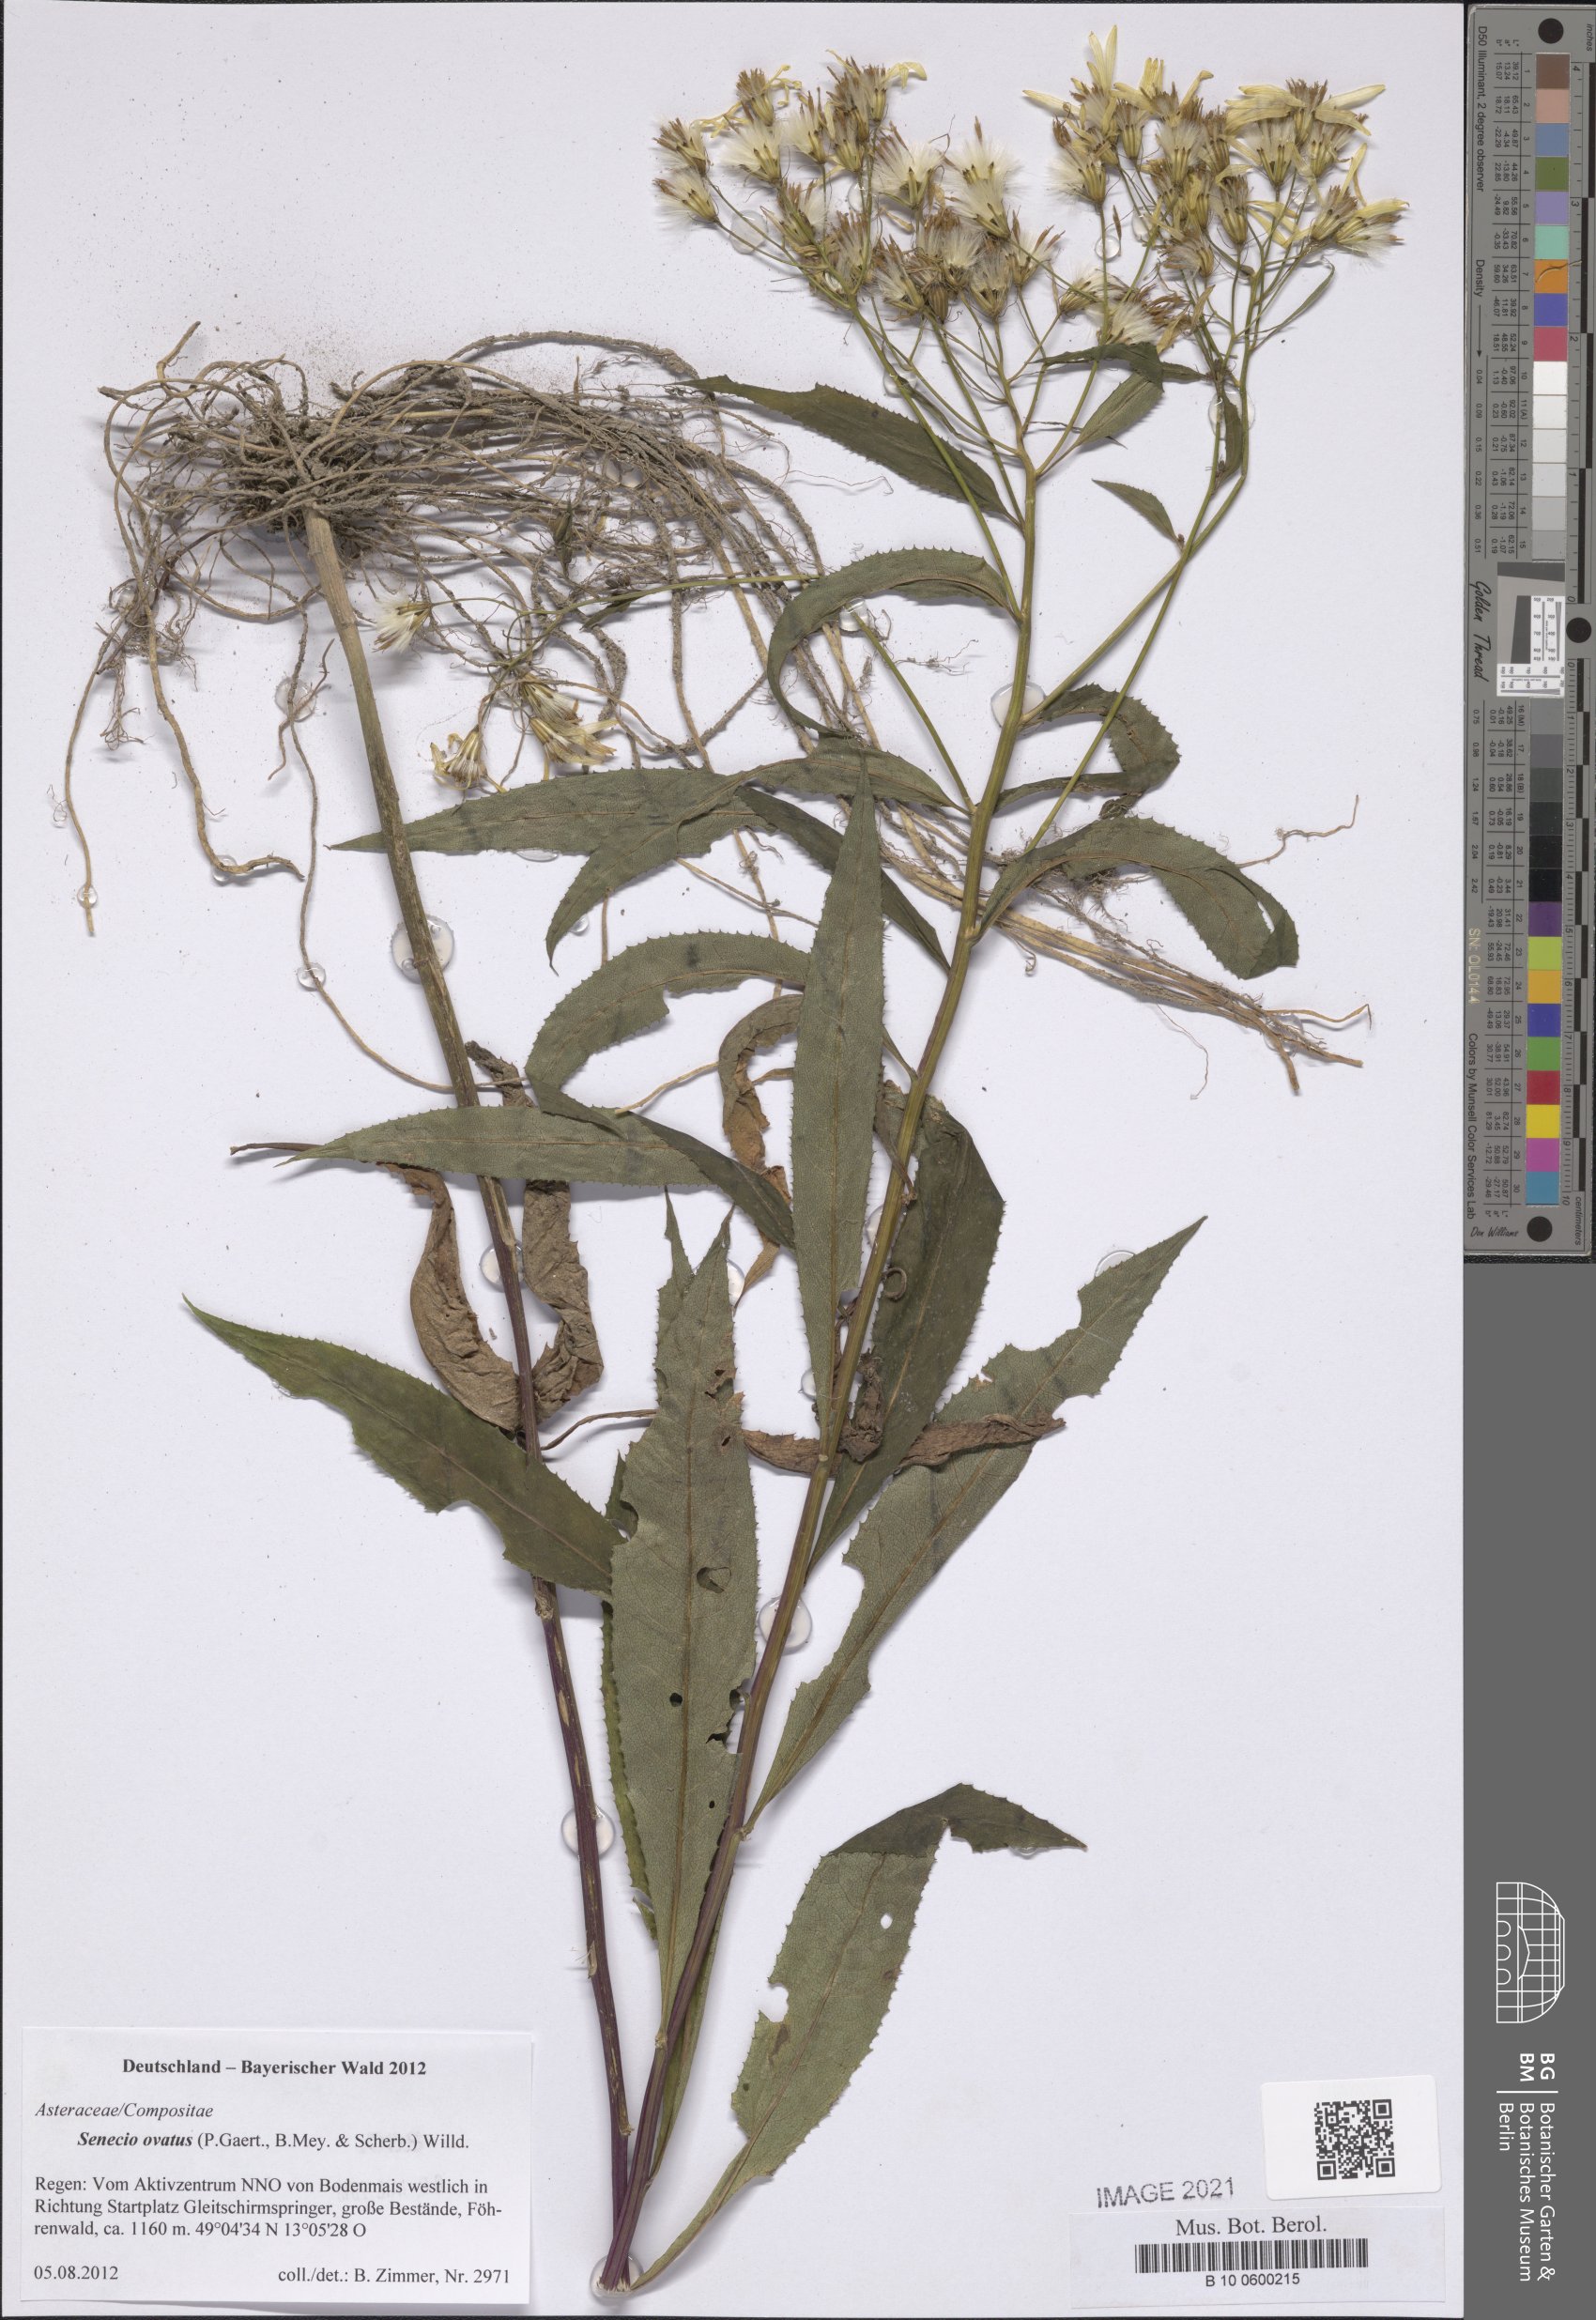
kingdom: Plantae
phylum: Tracheophyta
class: Magnoliopsida
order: Asterales
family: Asteraceae
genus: Senecio
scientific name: Senecio ovatus
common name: Wood ragwort
